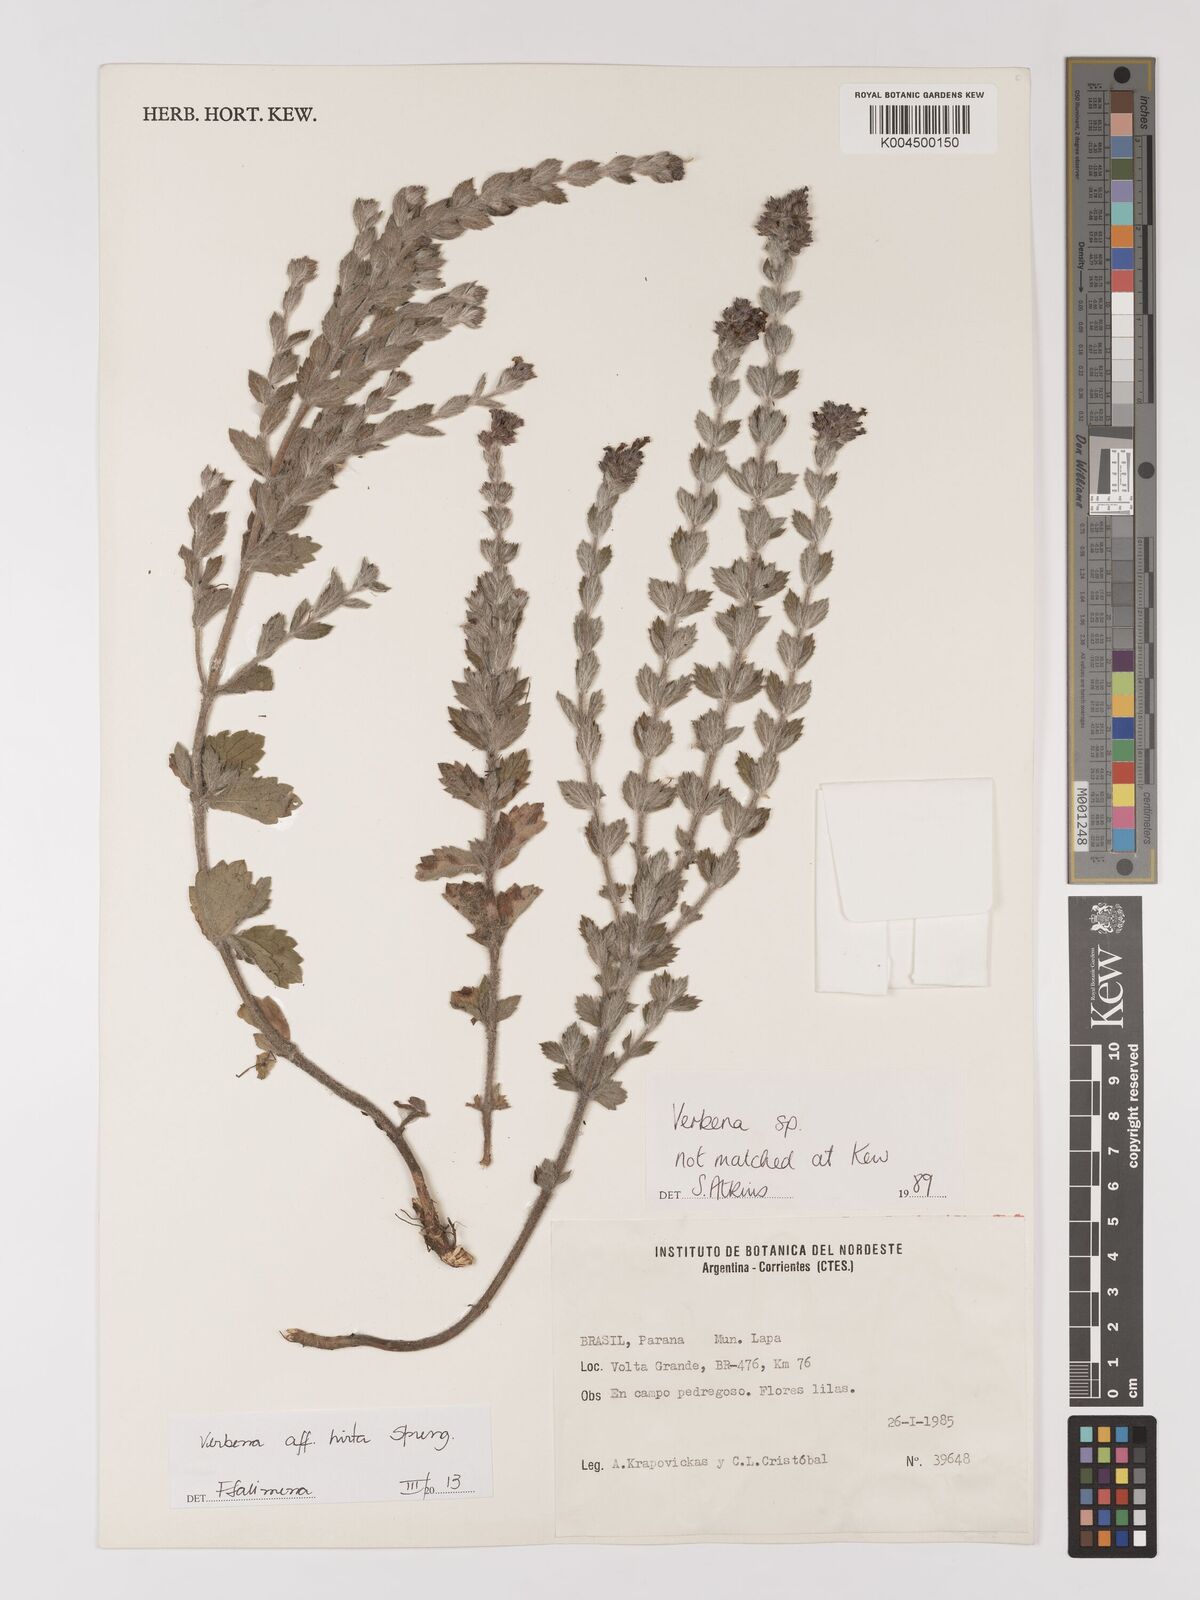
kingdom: Plantae
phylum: Tracheophyta
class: Magnoliopsida
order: Lamiales
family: Verbenaceae
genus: Verbena
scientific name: Verbena hirta
